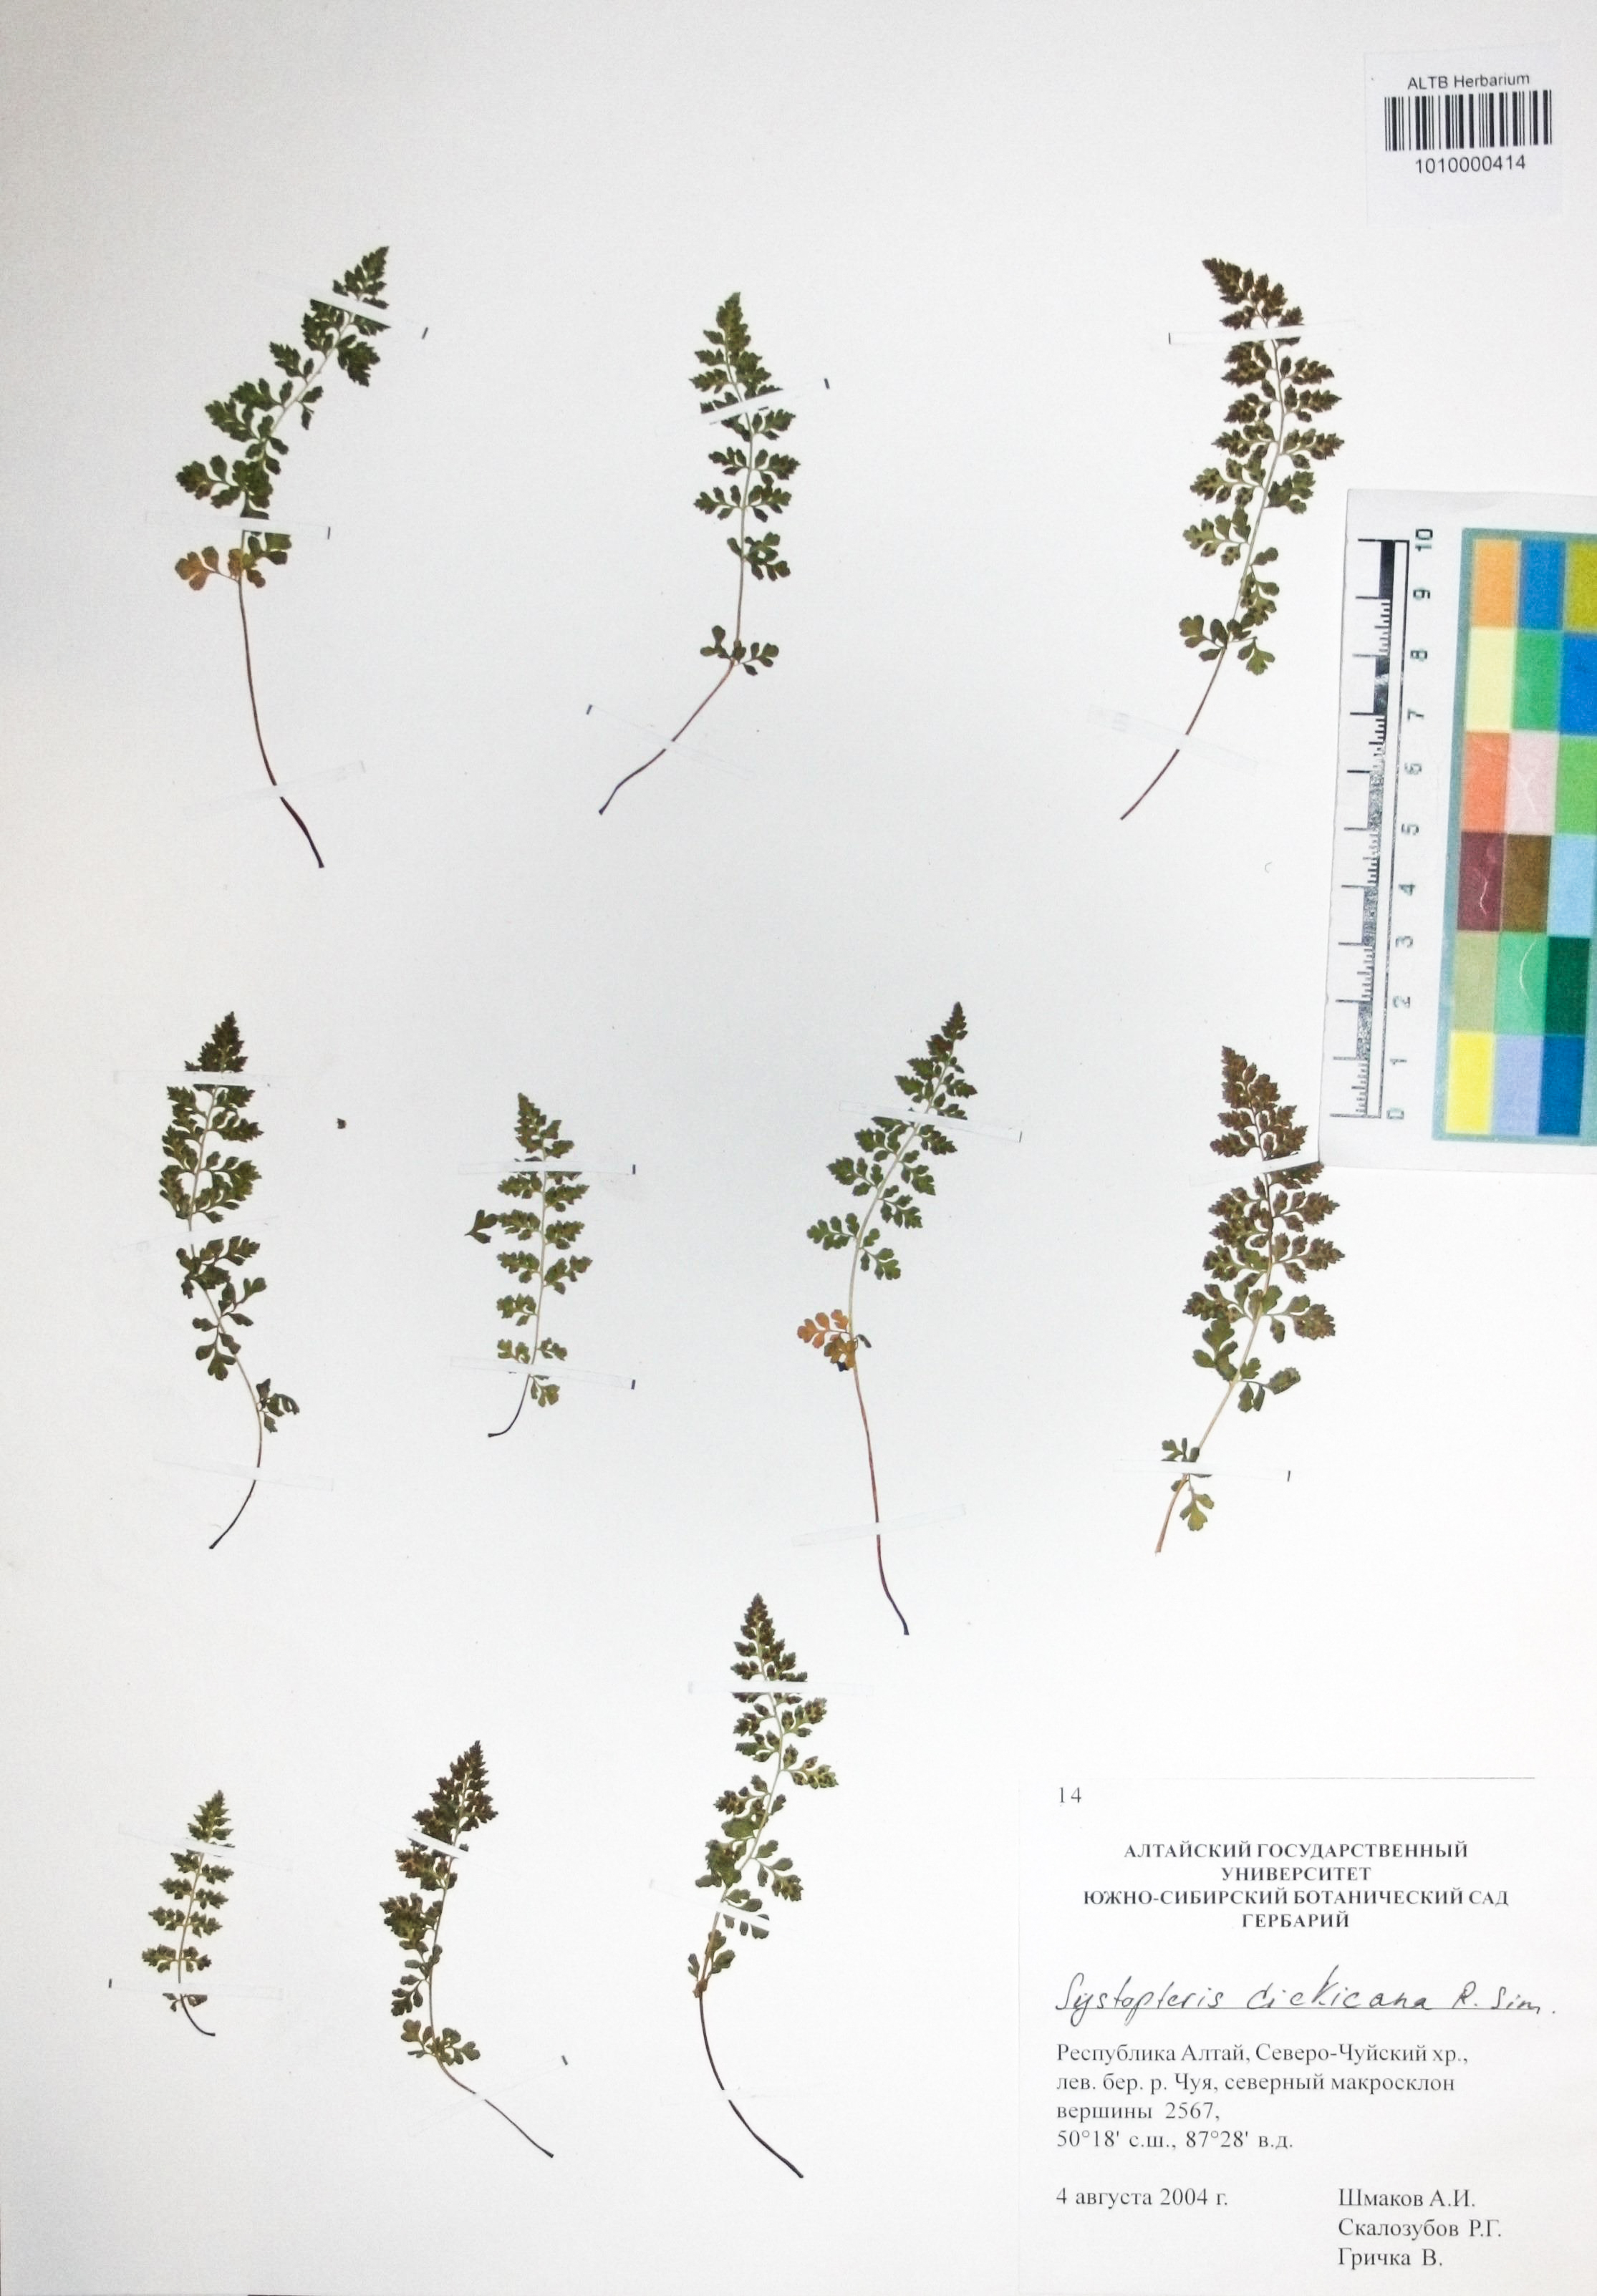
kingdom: Plantae
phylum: Tracheophyta
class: Polypodiopsida
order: Polypodiales
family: Cystopteridaceae
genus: Cystopteris
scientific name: Cystopteris dickieana
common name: Dickie's bladder-fern
